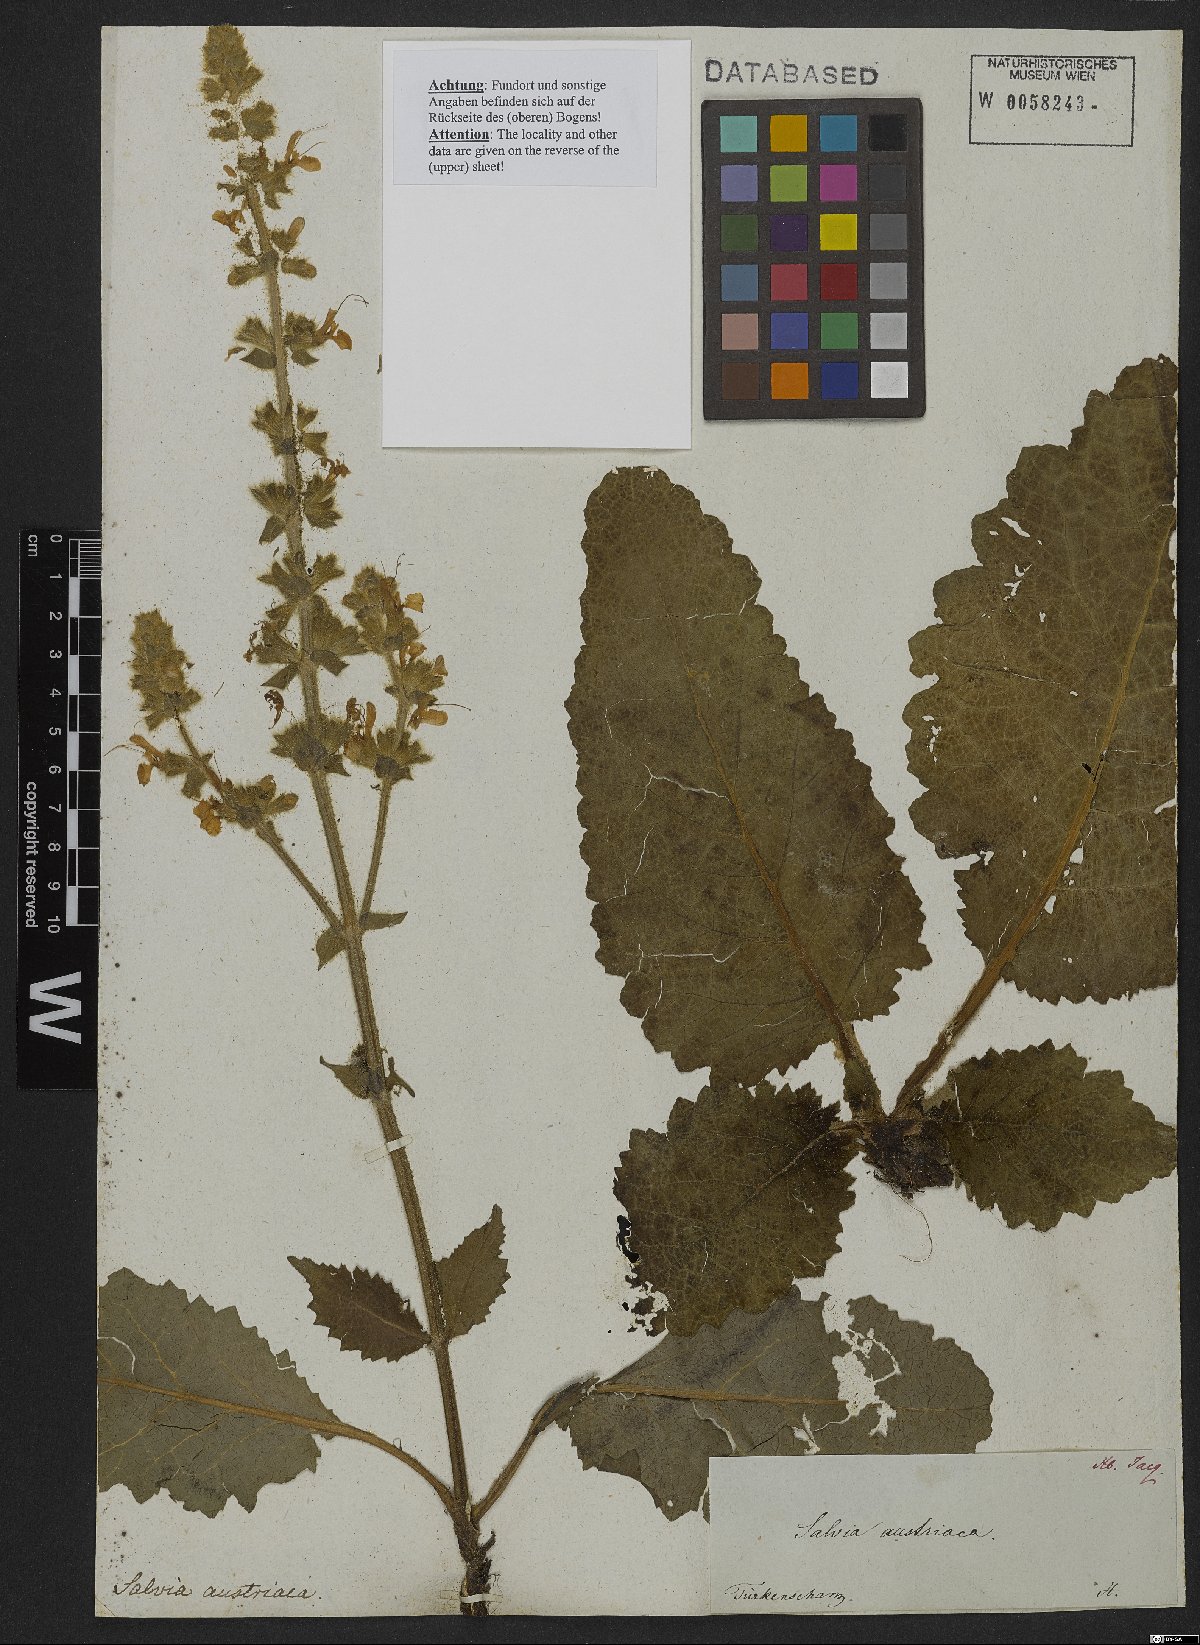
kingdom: Plantae
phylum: Tracheophyta
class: Magnoliopsida
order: Lamiales
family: Lamiaceae
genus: Salvia
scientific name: Salvia austriaca
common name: Austrian sage
